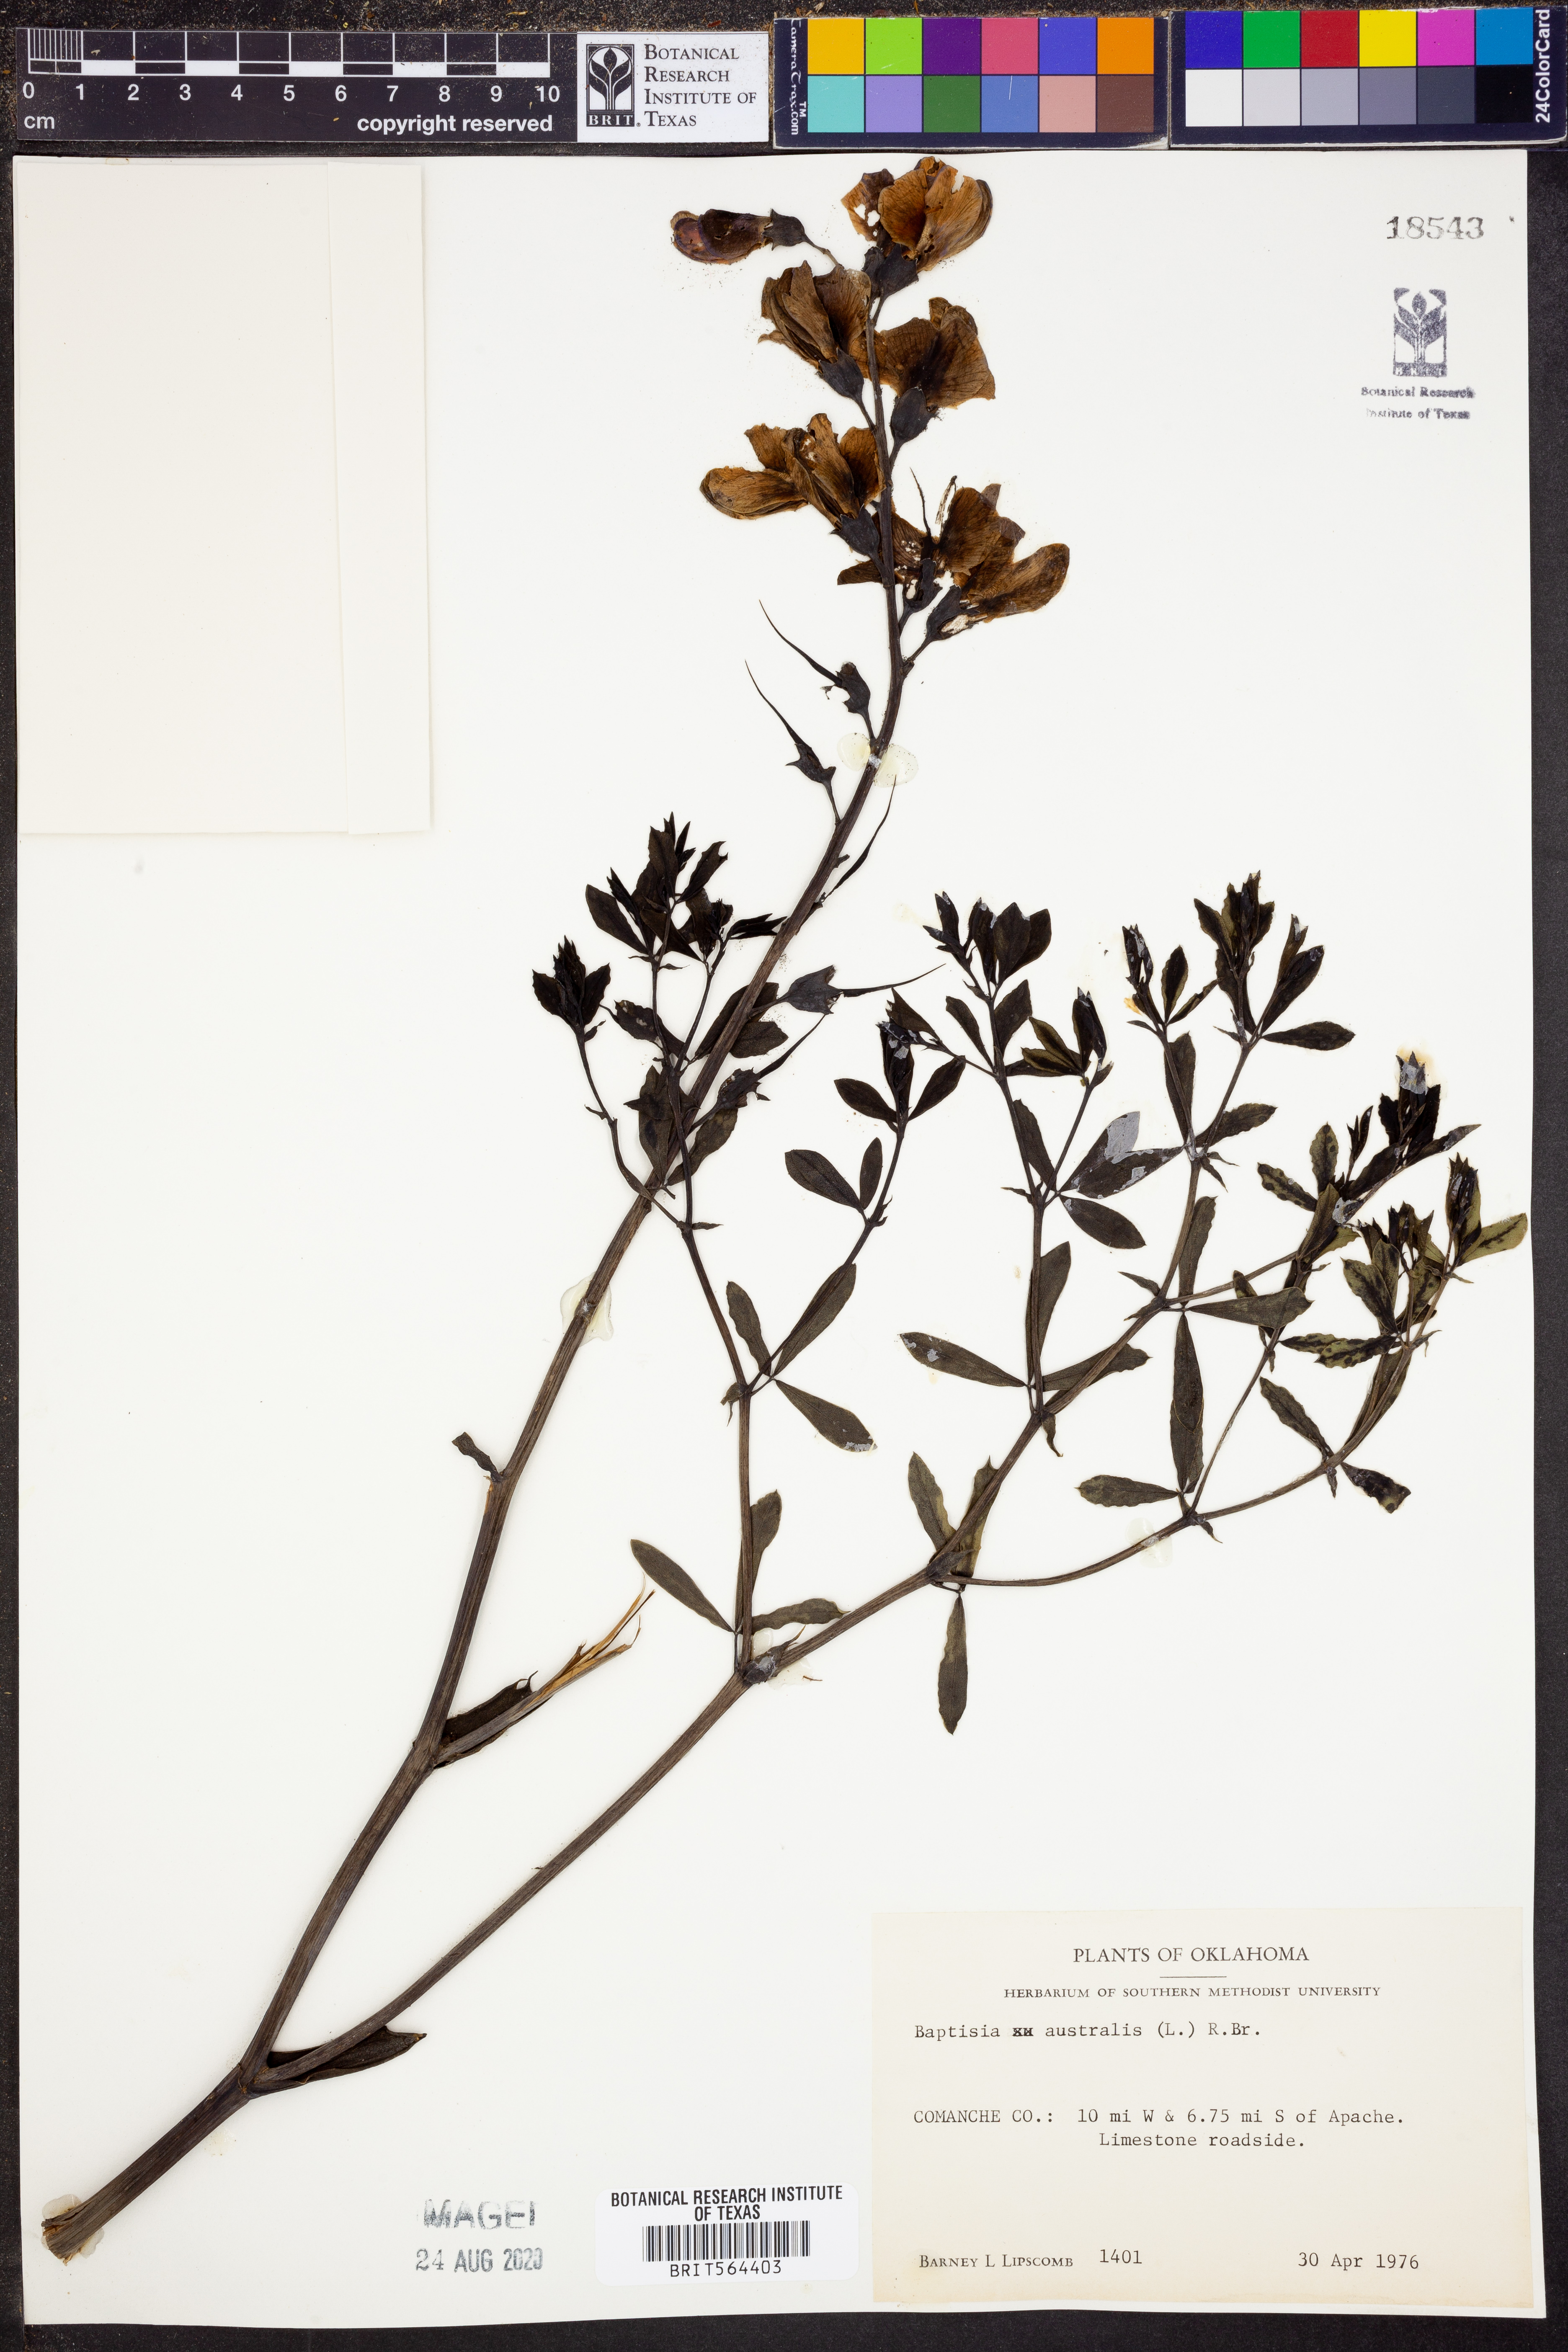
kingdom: Plantae
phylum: Tracheophyta
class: Magnoliopsida
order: Fabales
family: Fabaceae
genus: Baptisia
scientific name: Baptisia australis
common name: Blue false indigo
